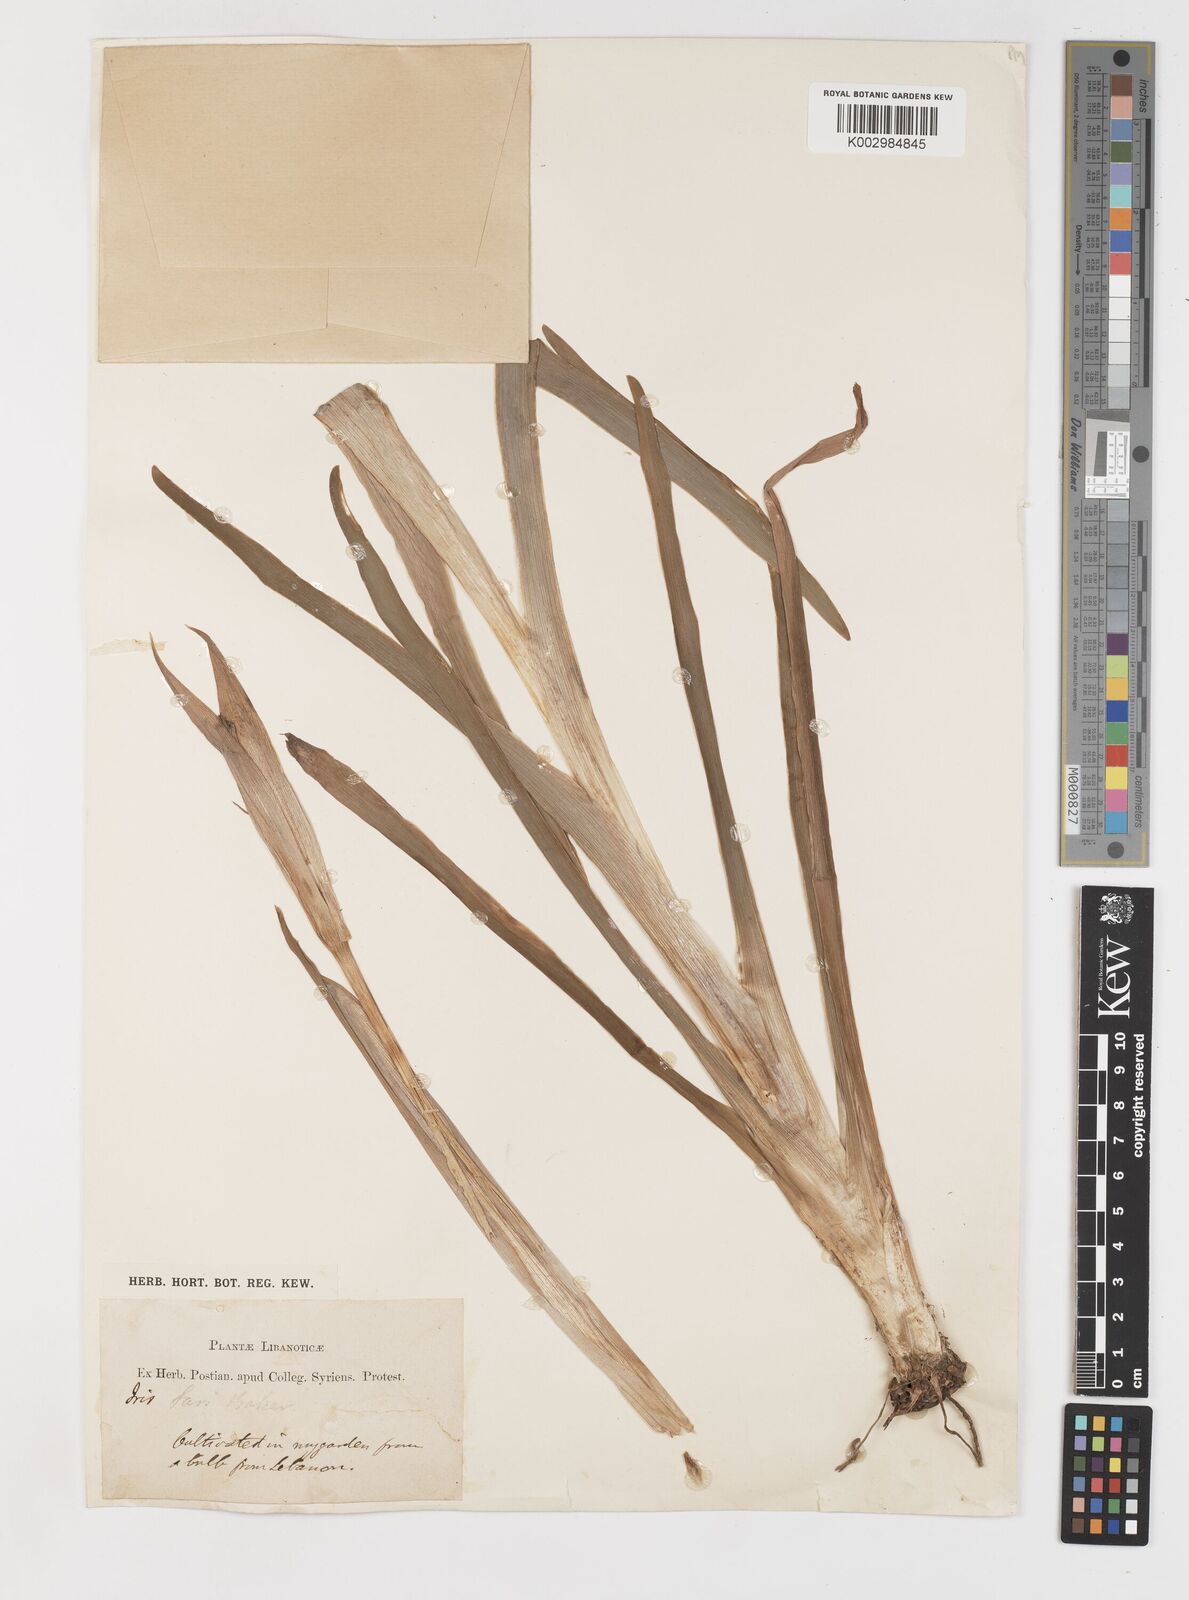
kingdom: Plantae
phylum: Tracheophyta
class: Liliopsida
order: Asparagales
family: Iridaceae
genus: Iris
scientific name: Iris atrofusca
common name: Asshafa iris
